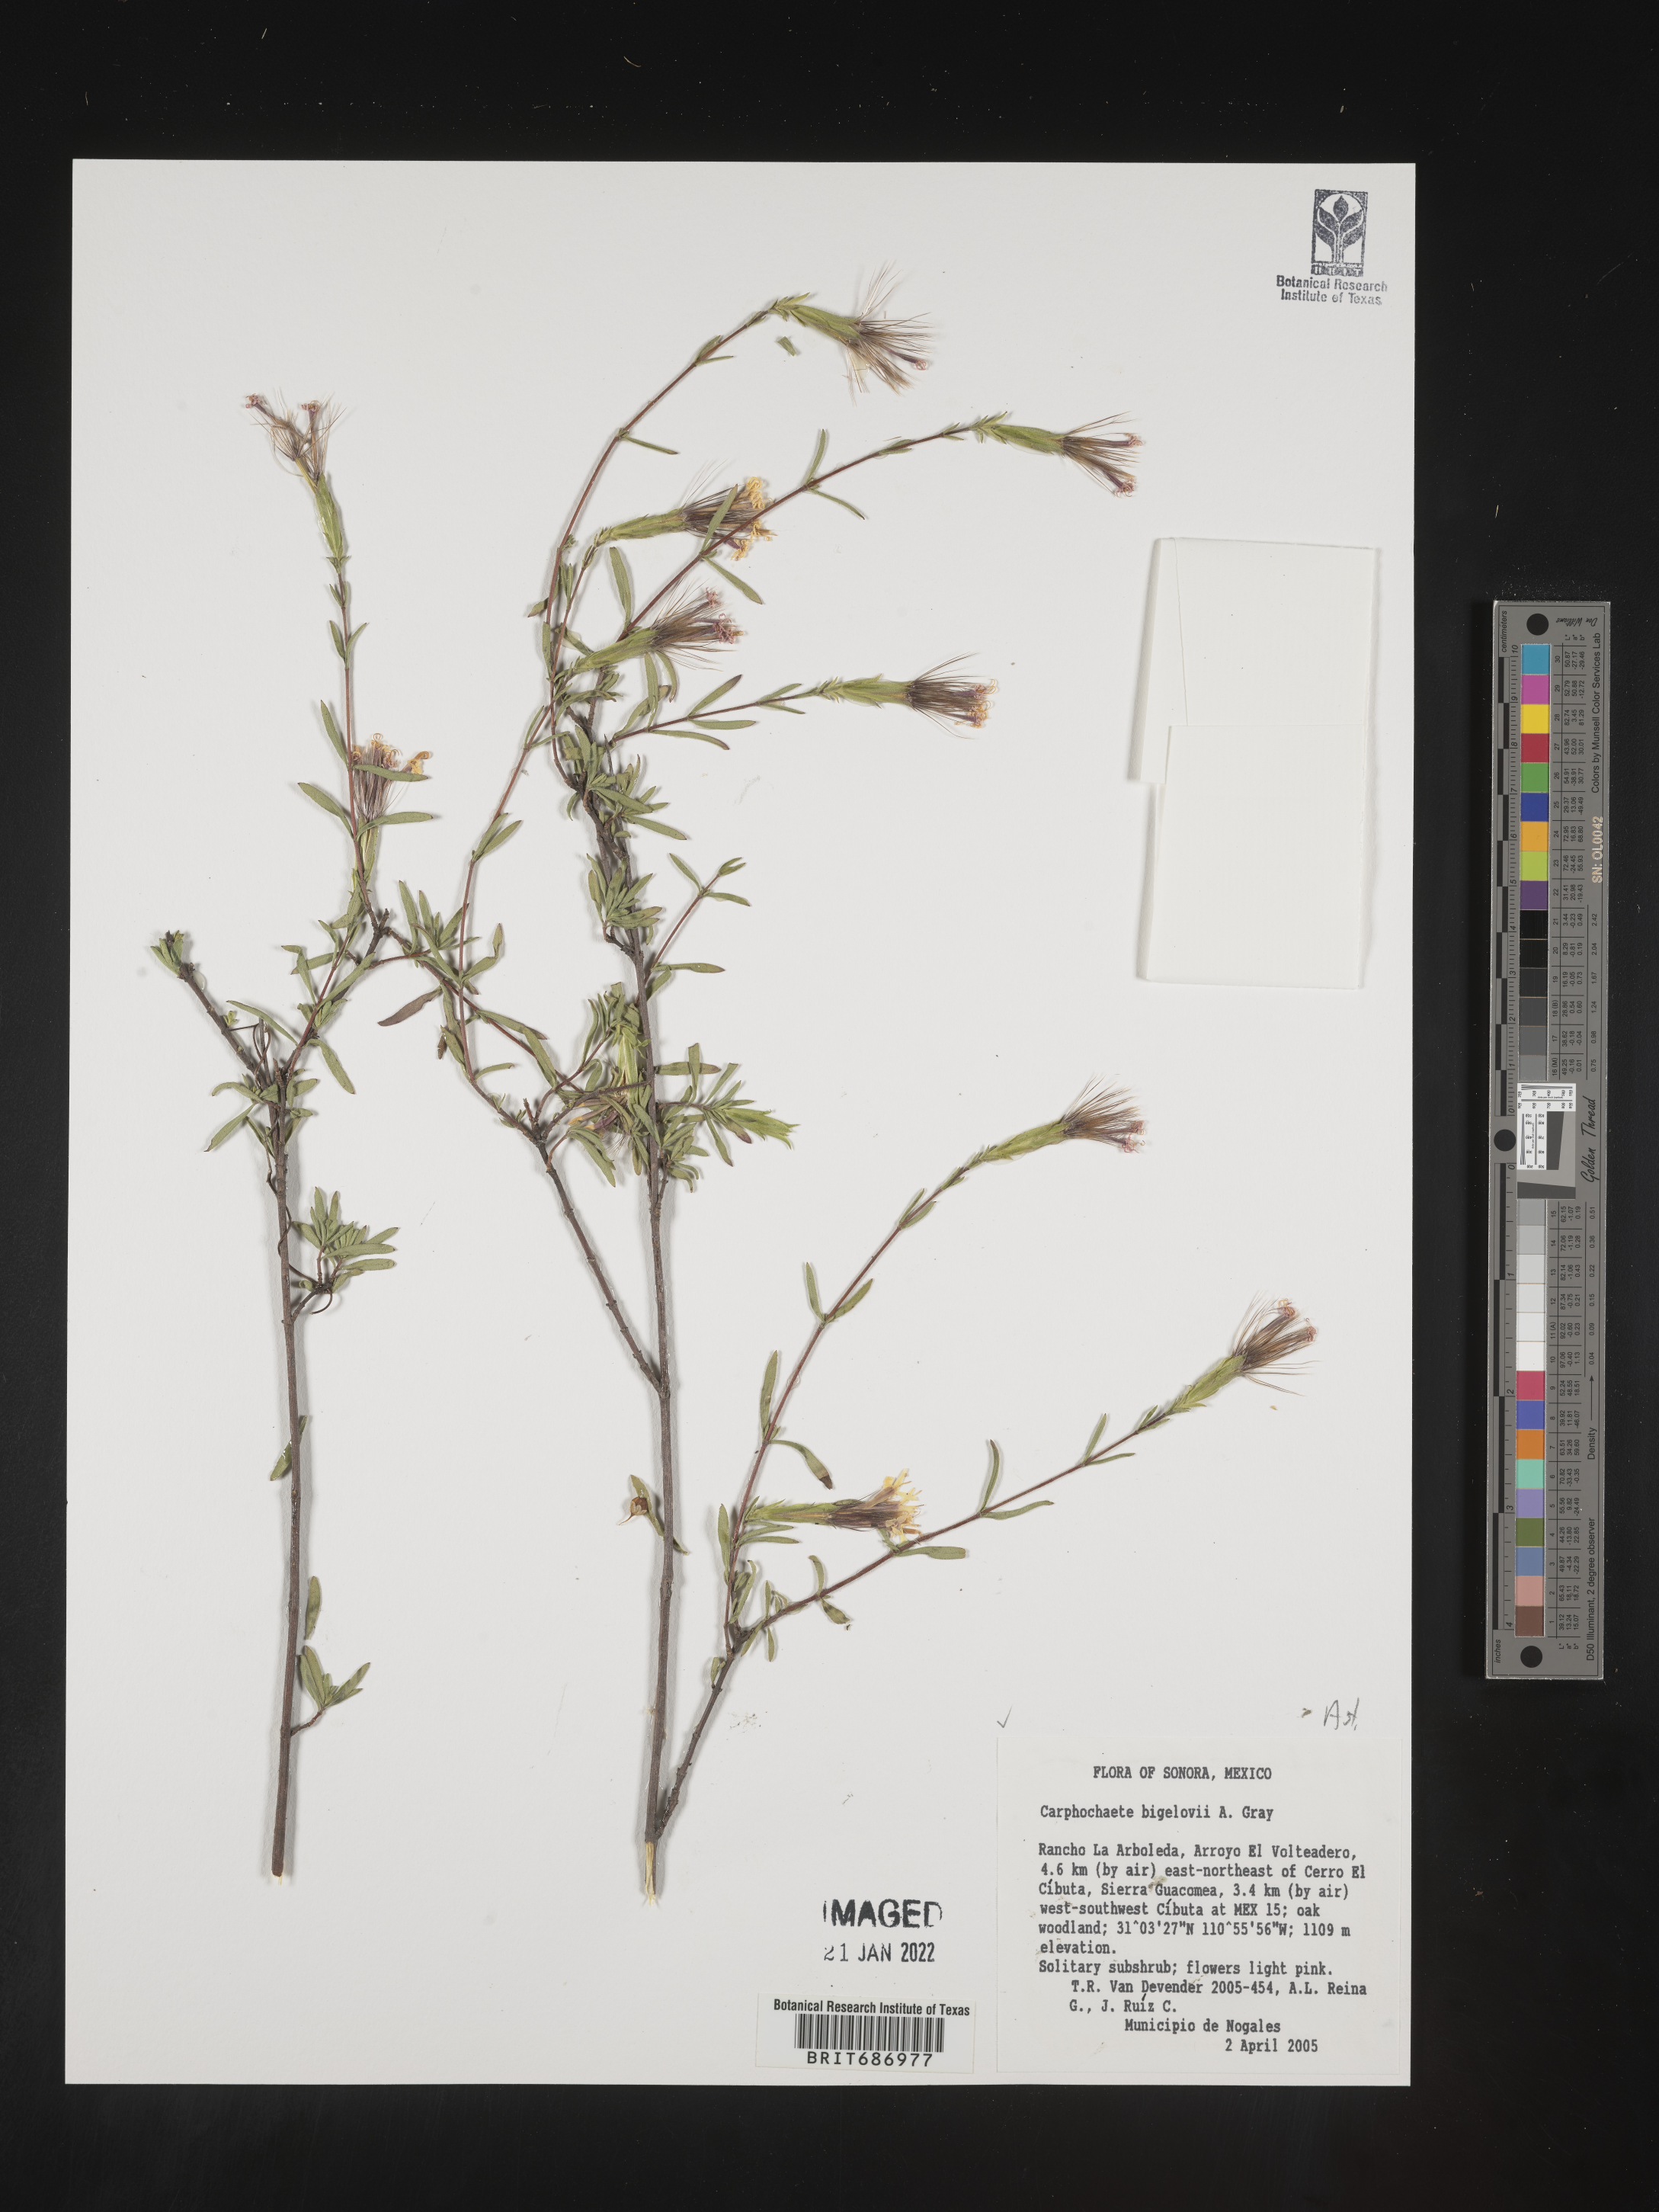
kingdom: Plantae
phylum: Tracheophyta
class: Magnoliopsida
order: Asterales
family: Asteraceae
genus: Carphochaete
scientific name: Carphochaete
